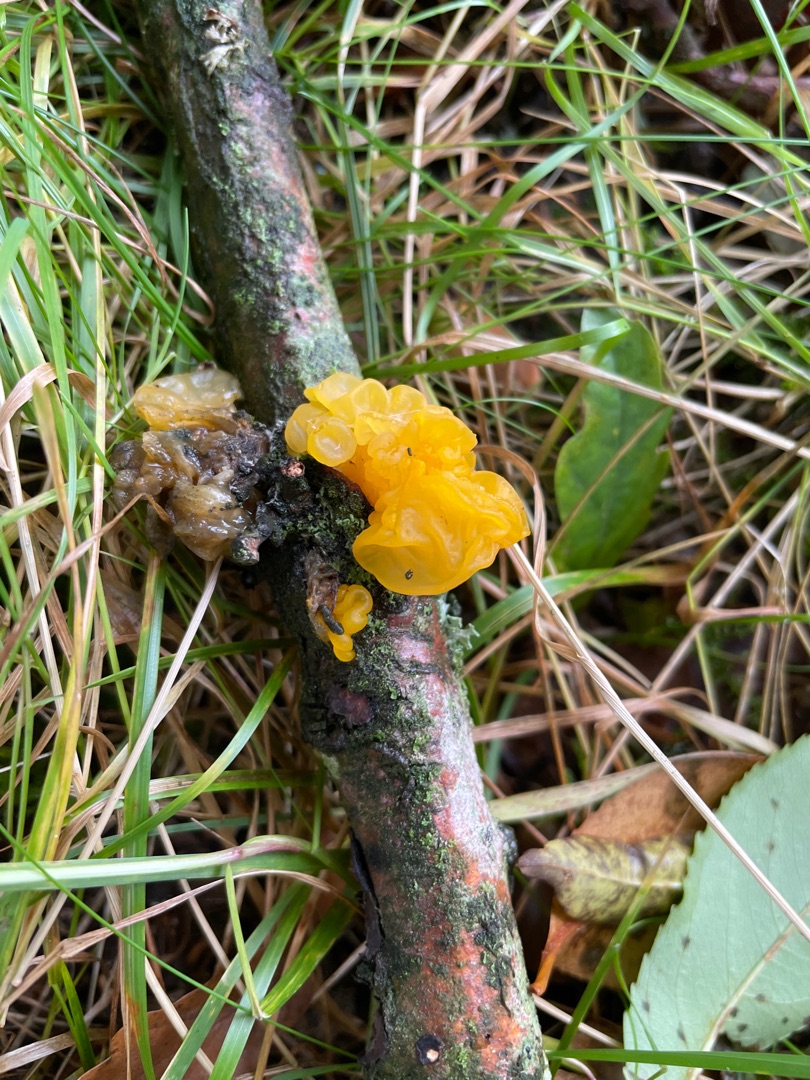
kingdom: Fungi
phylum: Basidiomycota
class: Tremellomycetes
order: Tremellales
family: Tremellaceae
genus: Tremella
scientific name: Tremella mesenterica
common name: Gul bævresvamp
